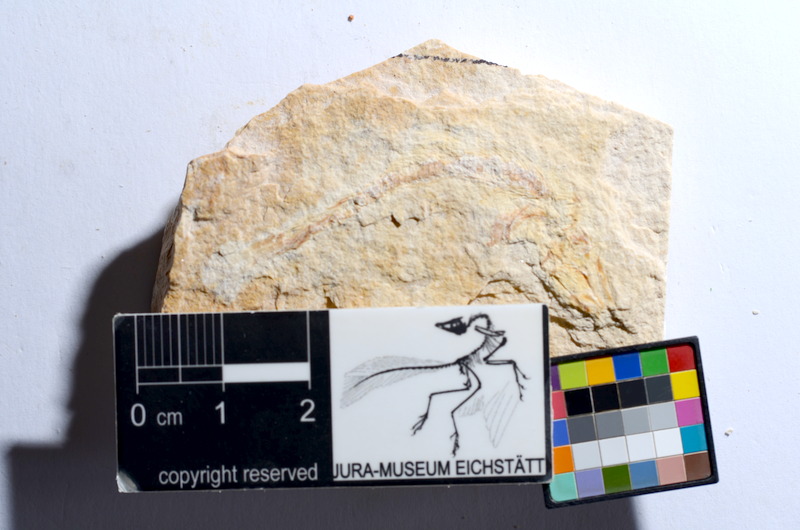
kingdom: Animalia
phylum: Chordata
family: Ascalaboidae
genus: Tharsis
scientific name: Tharsis dubius
